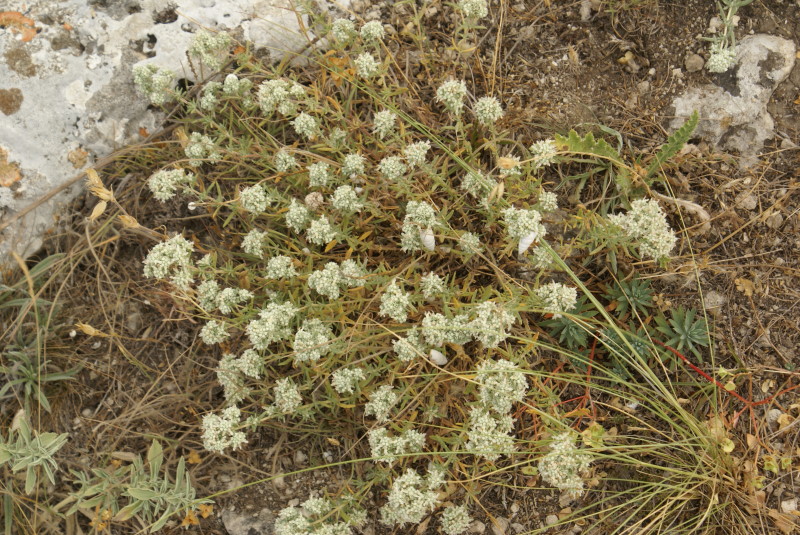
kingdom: Plantae
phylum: Tracheophyta
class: Magnoliopsida
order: Lamiales
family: Lamiaceae
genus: Teucrium
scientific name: Teucrium polium
